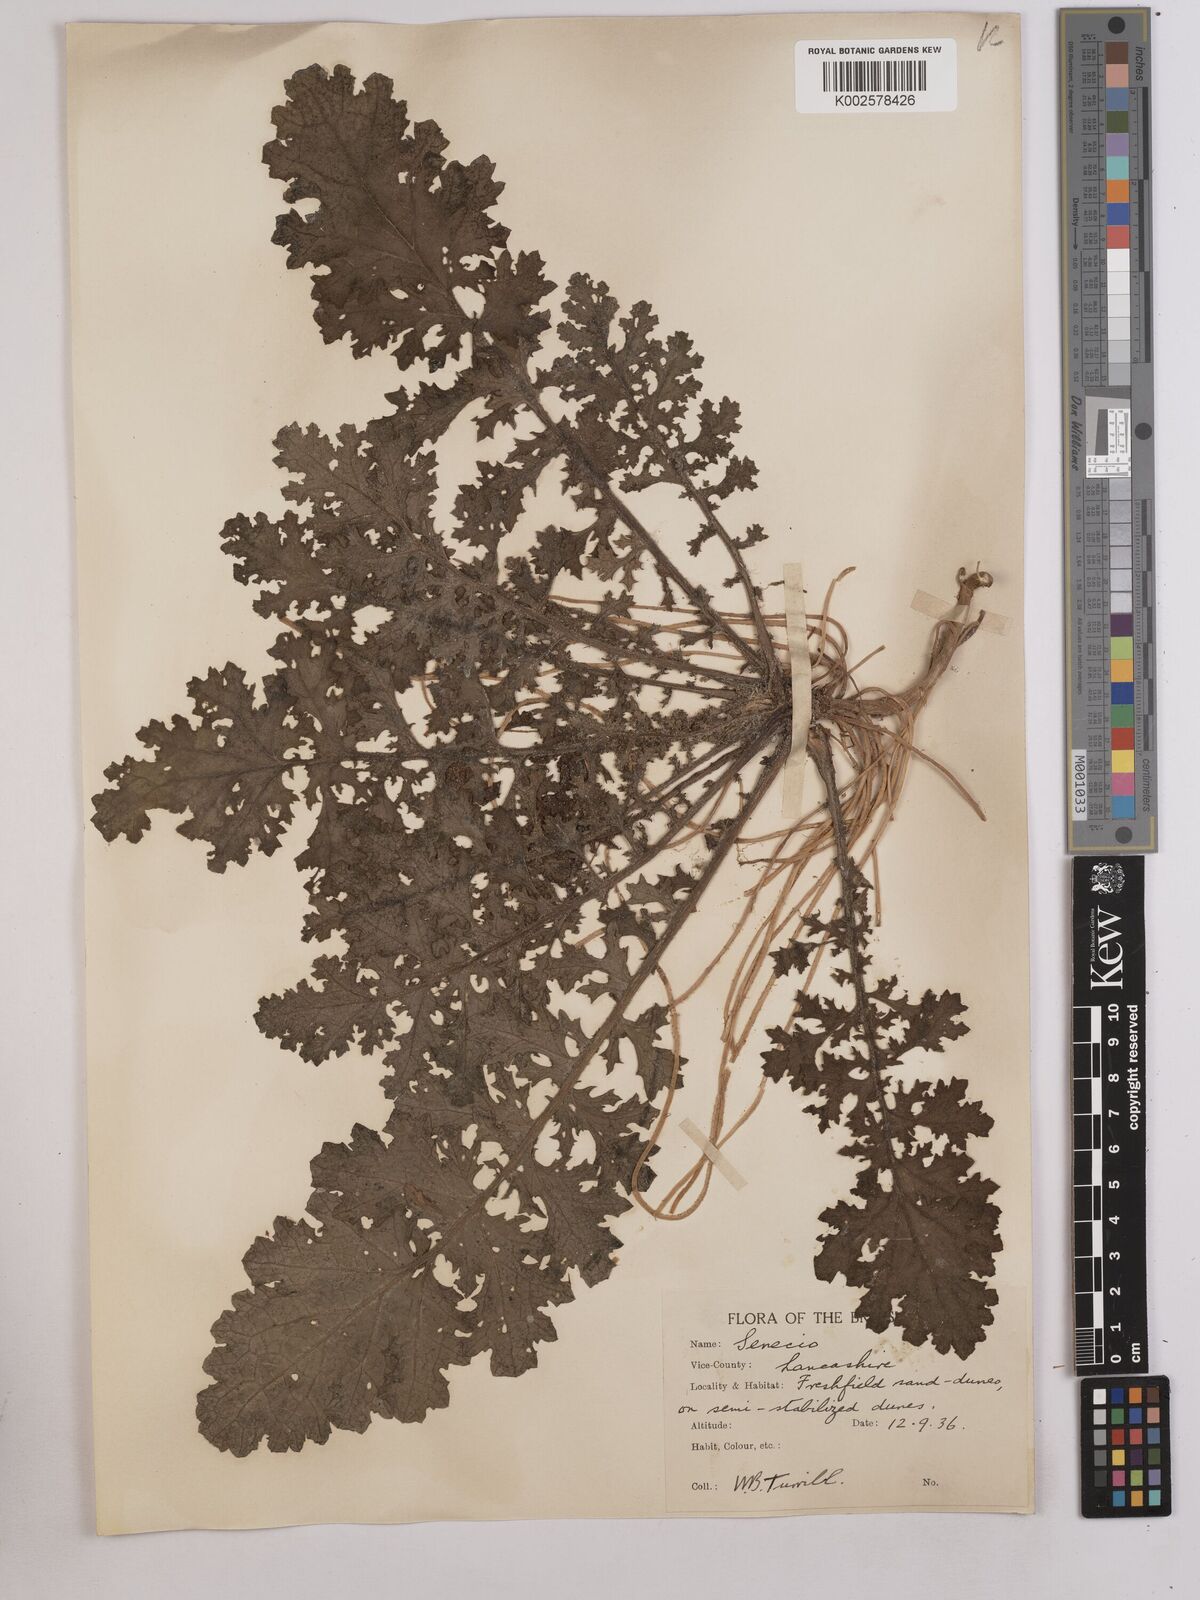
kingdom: Plantae
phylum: Tracheophyta
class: Magnoliopsida
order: Asterales
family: Asteraceae
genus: Jacobaea
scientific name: Jacobaea vulgaris
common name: Stinking willie
